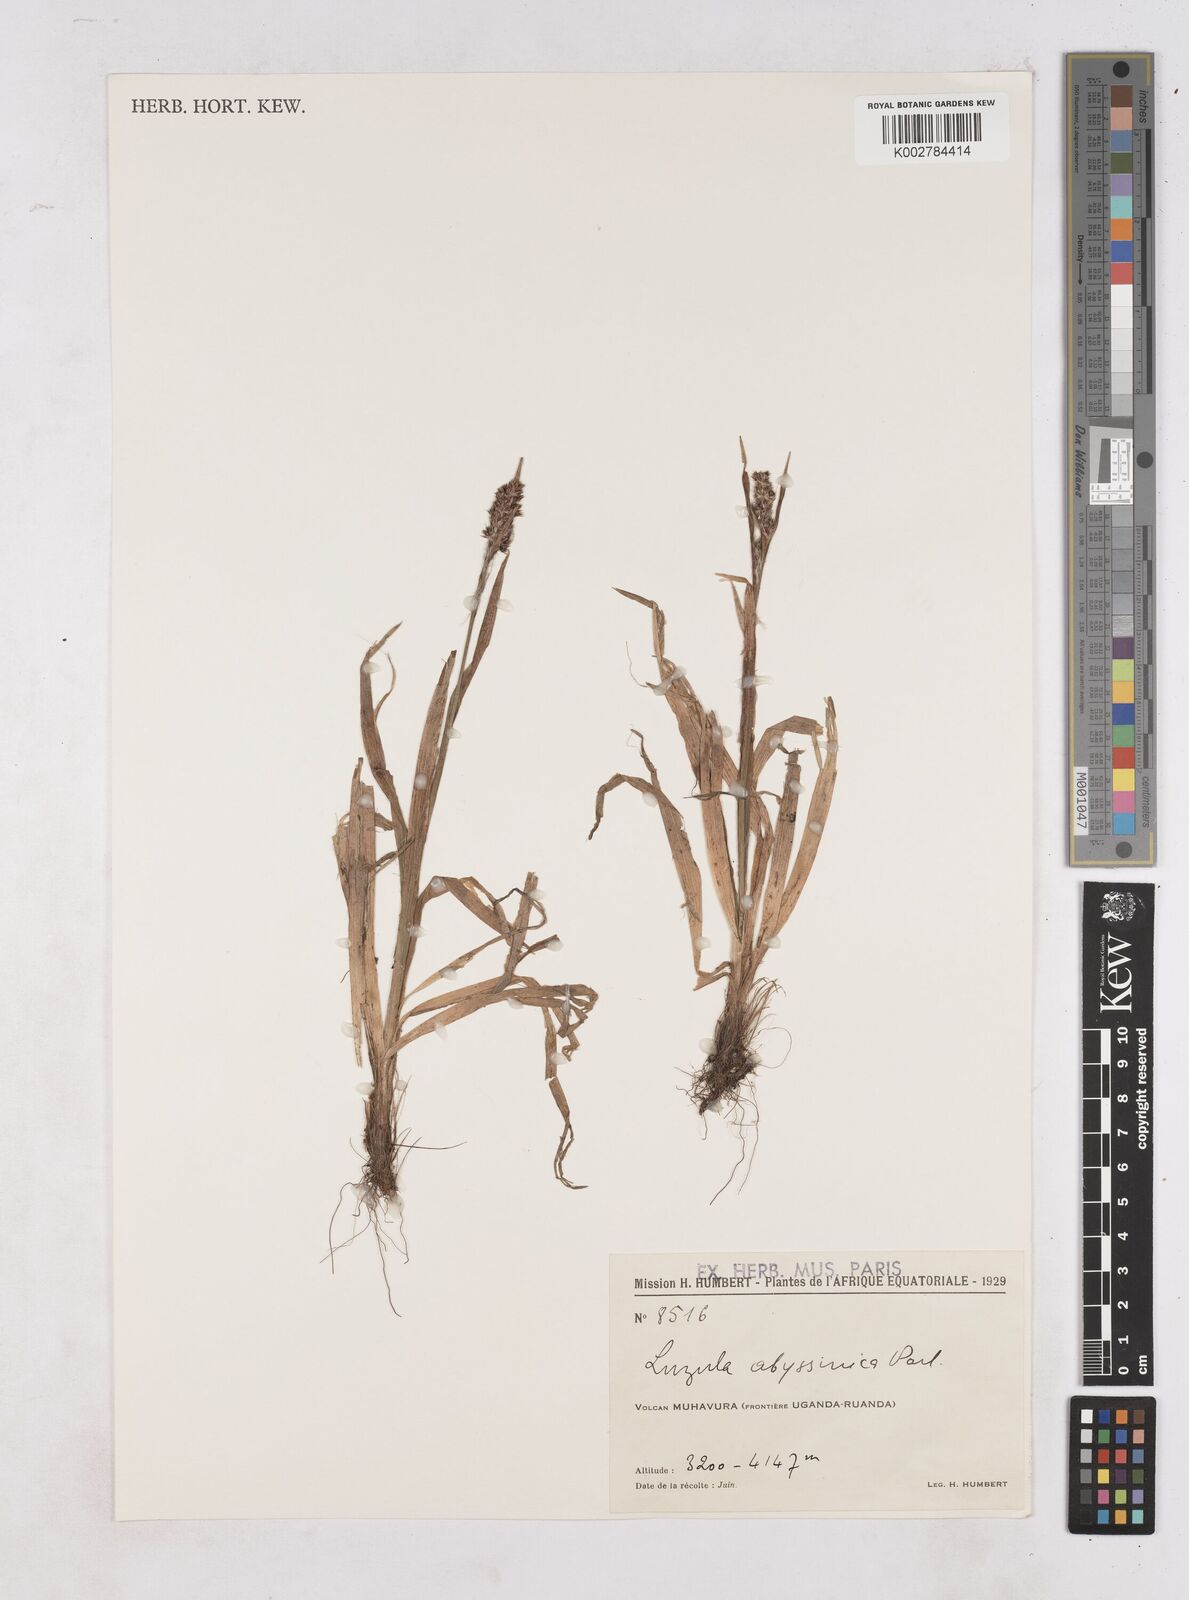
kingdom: Plantae
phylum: Tracheophyta
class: Liliopsida
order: Poales
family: Juncaceae
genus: Luzula
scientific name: Luzula abyssinica
